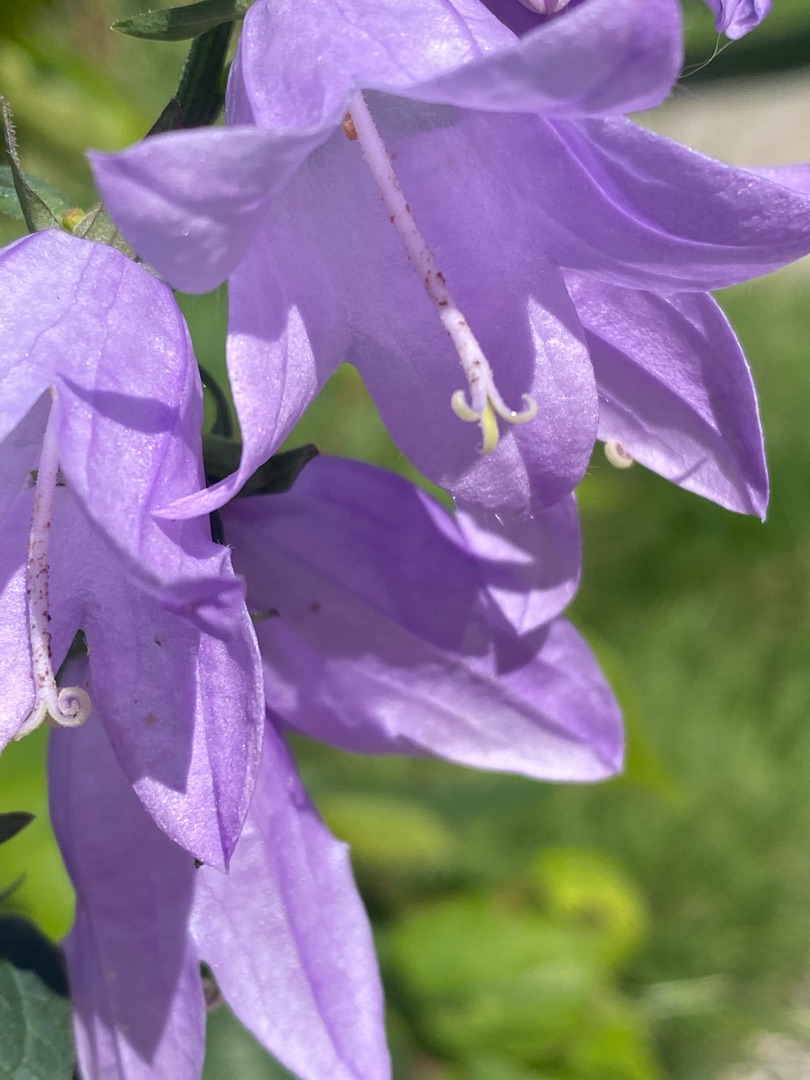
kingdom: Plantae
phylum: Tracheophyta
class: Magnoliopsida
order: Asterales
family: Campanulaceae
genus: Campanula
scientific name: Campanula rapunculoides
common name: Ensidig klokke
